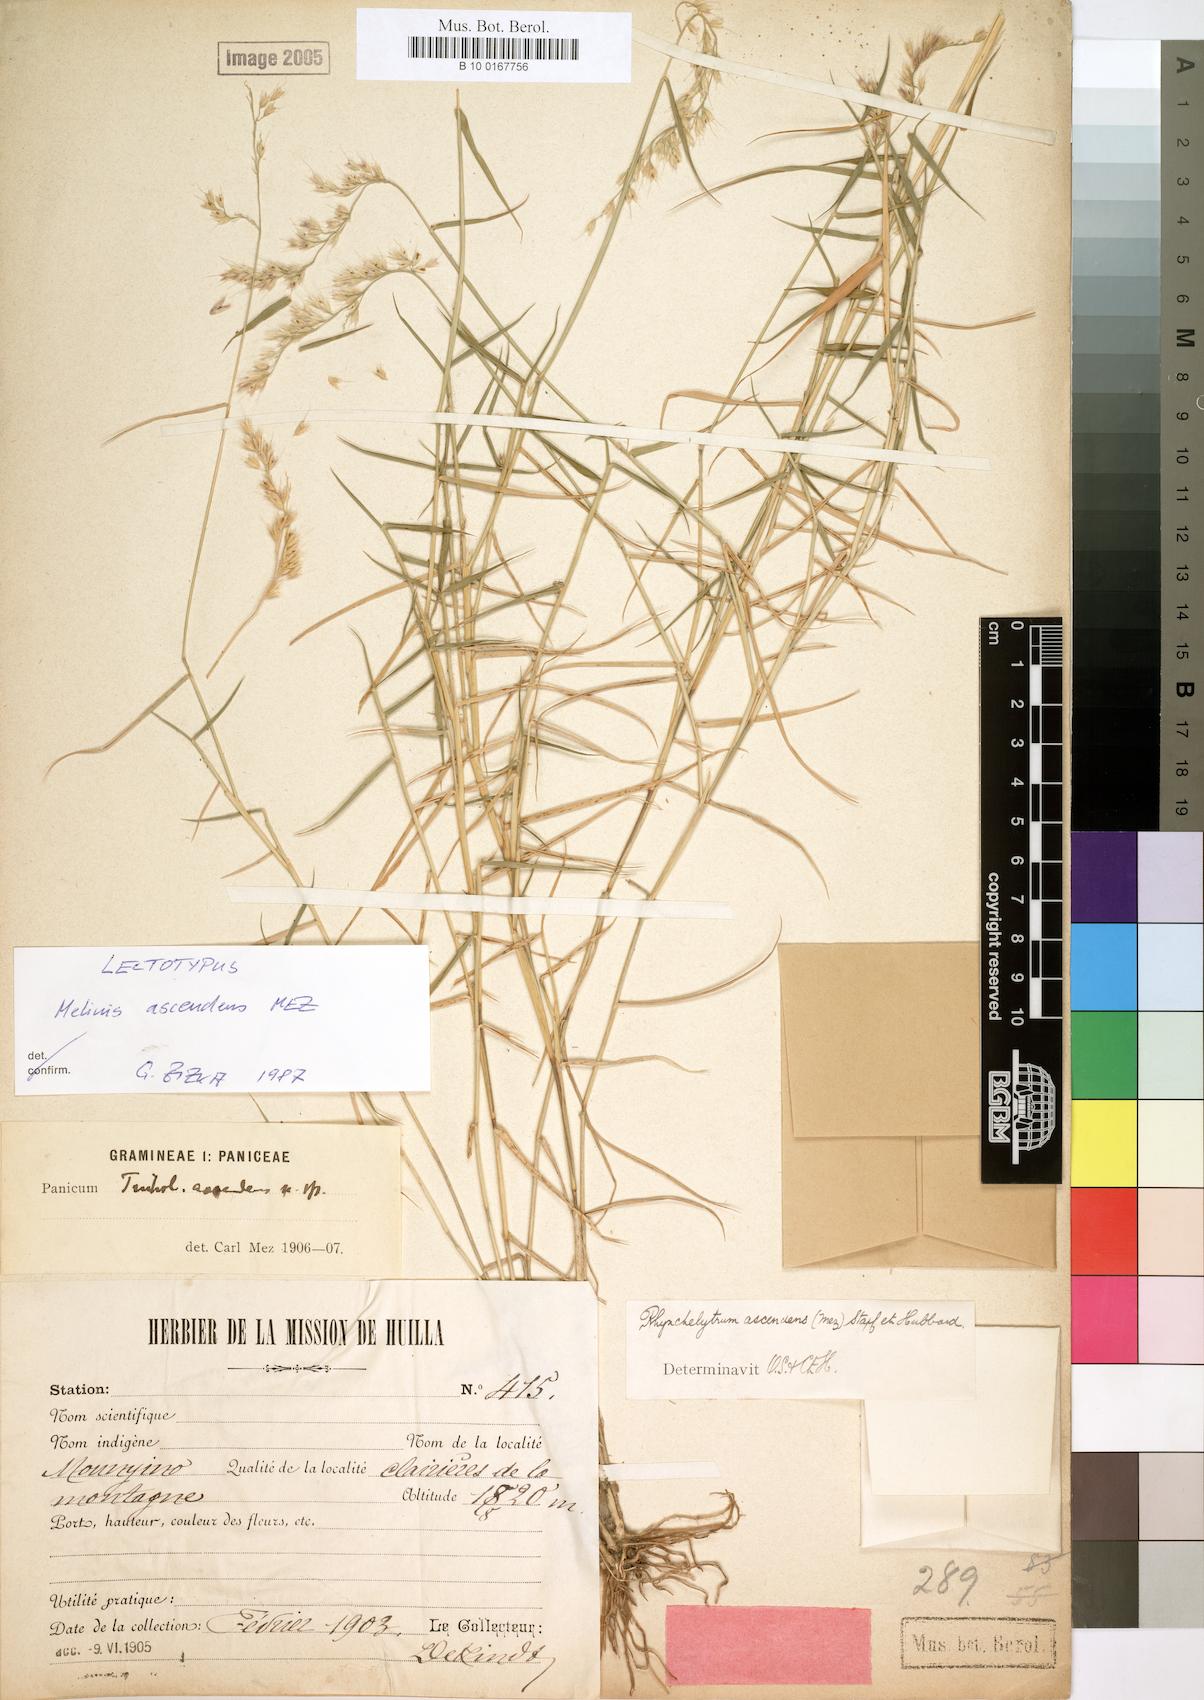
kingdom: Plantae
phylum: Tracheophyta
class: Liliopsida
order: Poales
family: Poaceae
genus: Melinis
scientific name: Melinis ascendens
